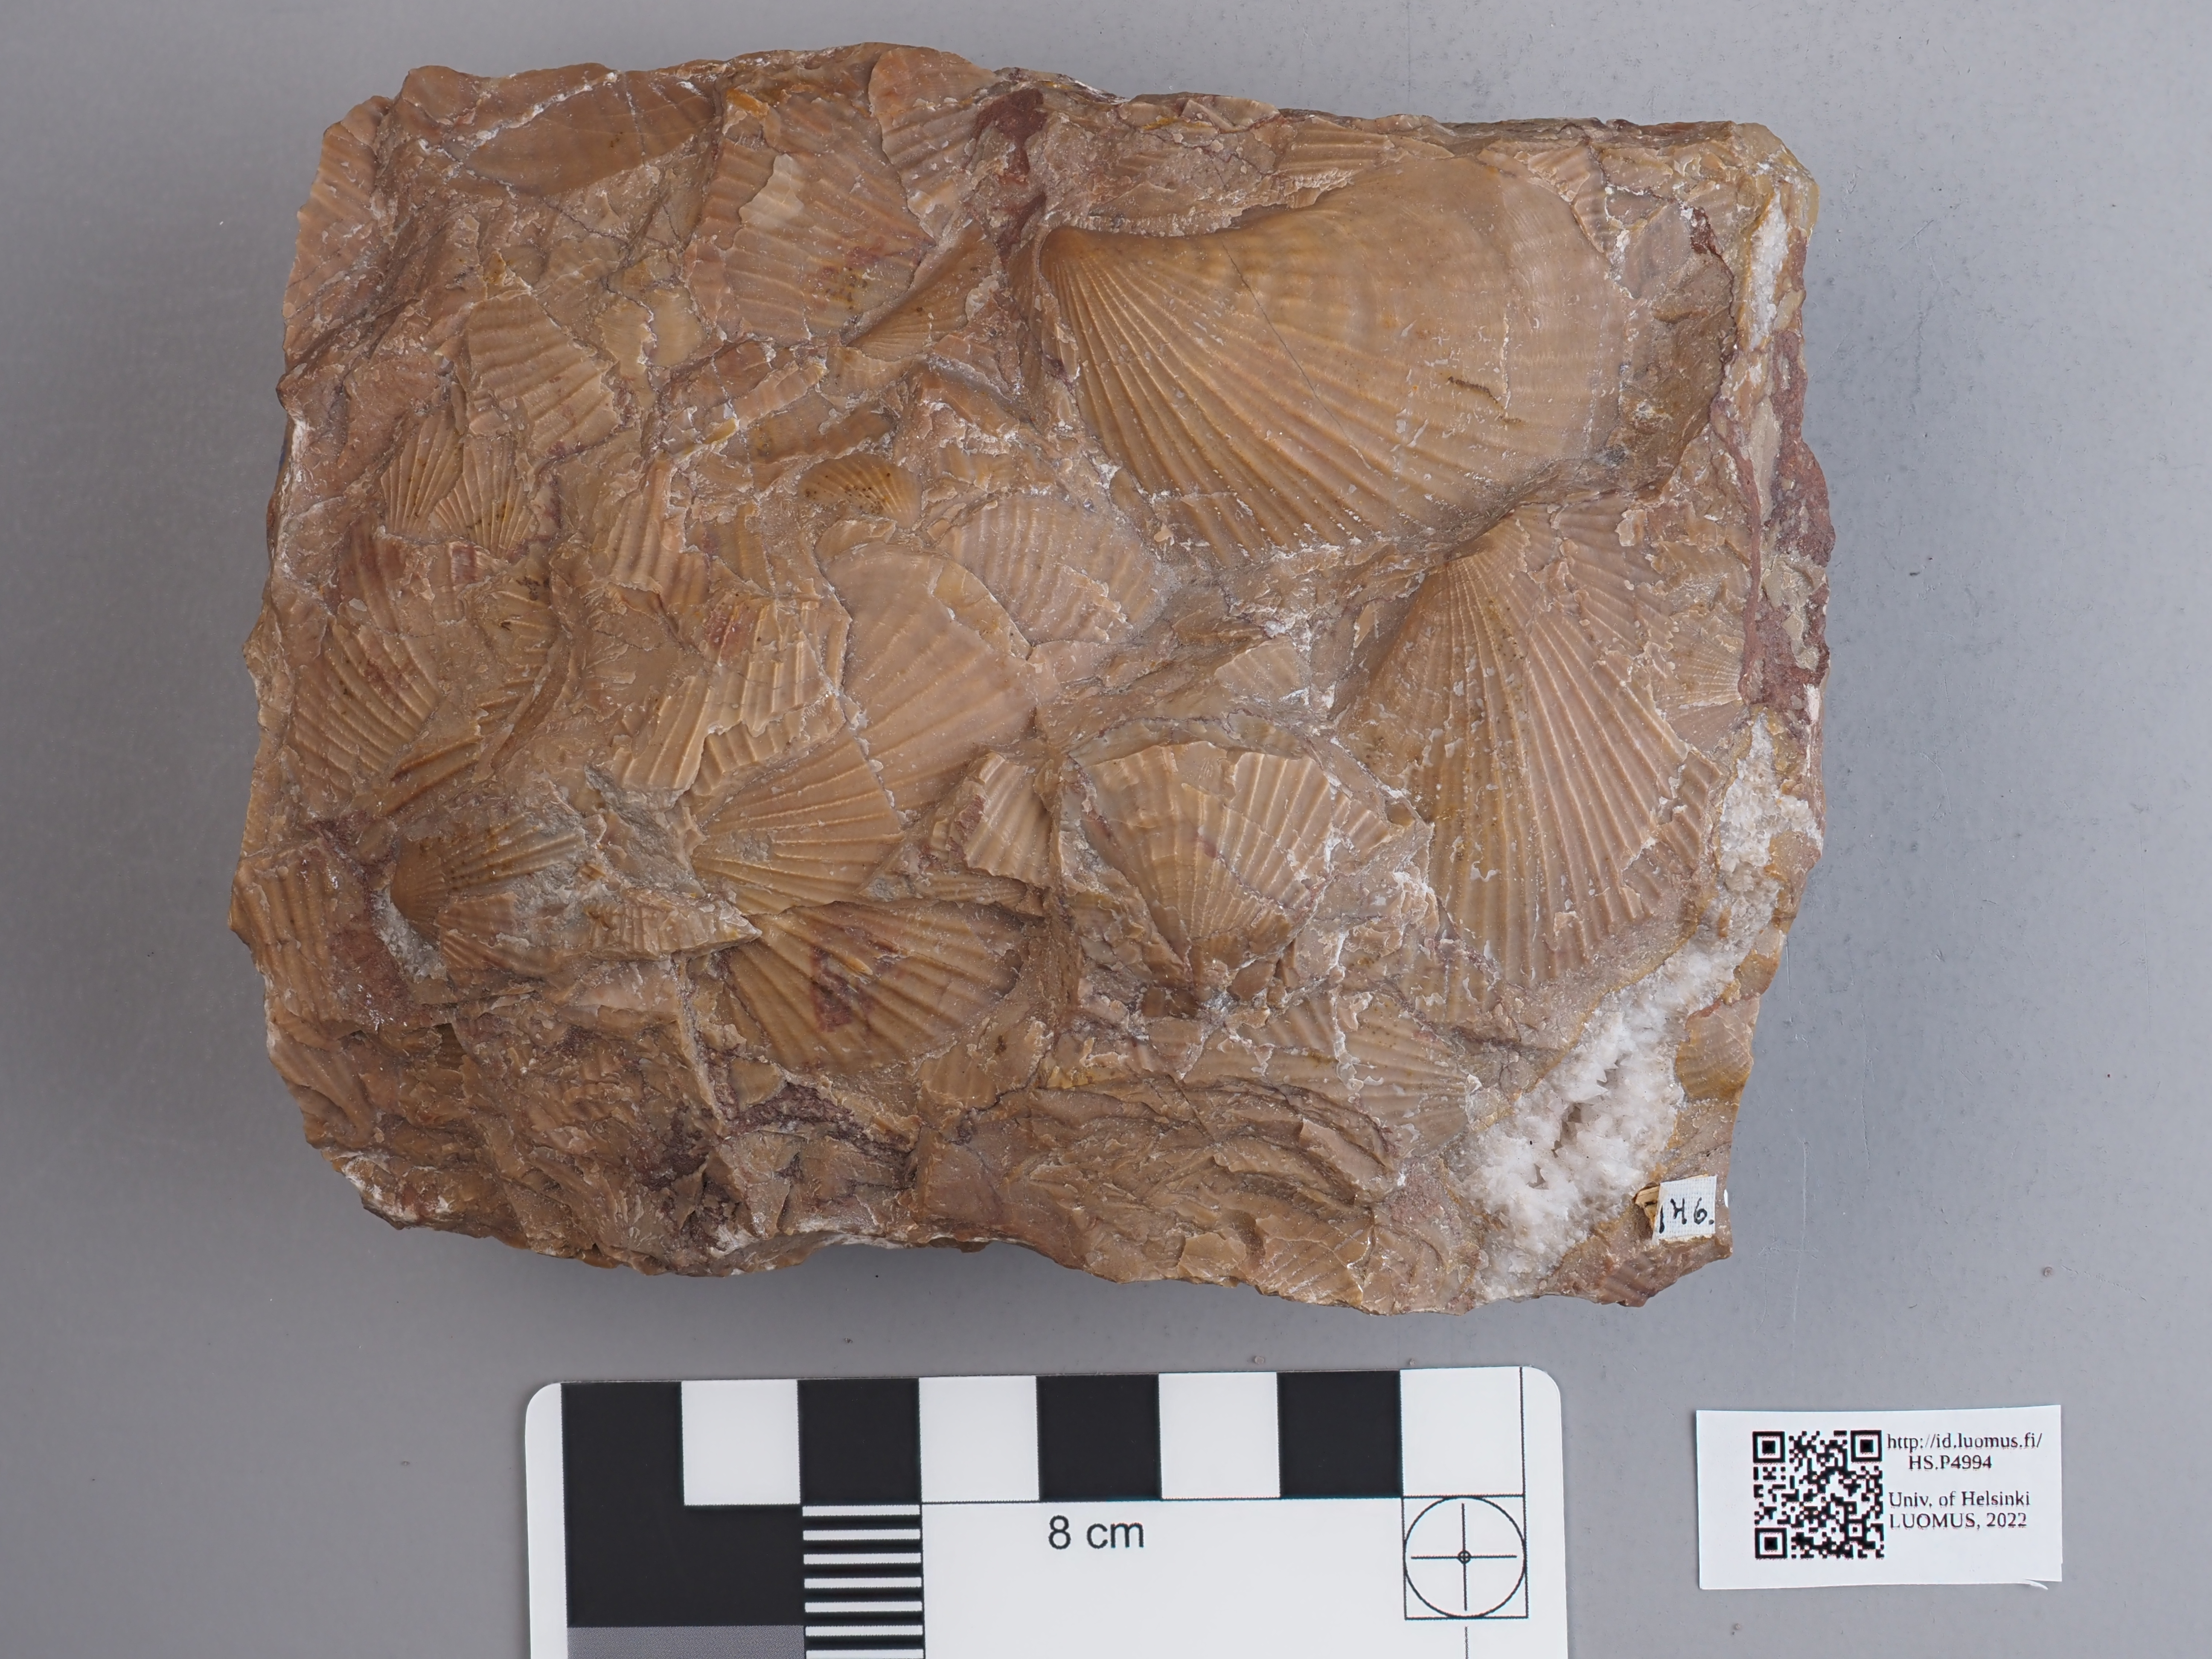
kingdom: Animalia
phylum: Mollusca
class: Bivalvia
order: Pectinida
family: Monotidae
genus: Monotis
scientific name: Monotis salinaria
